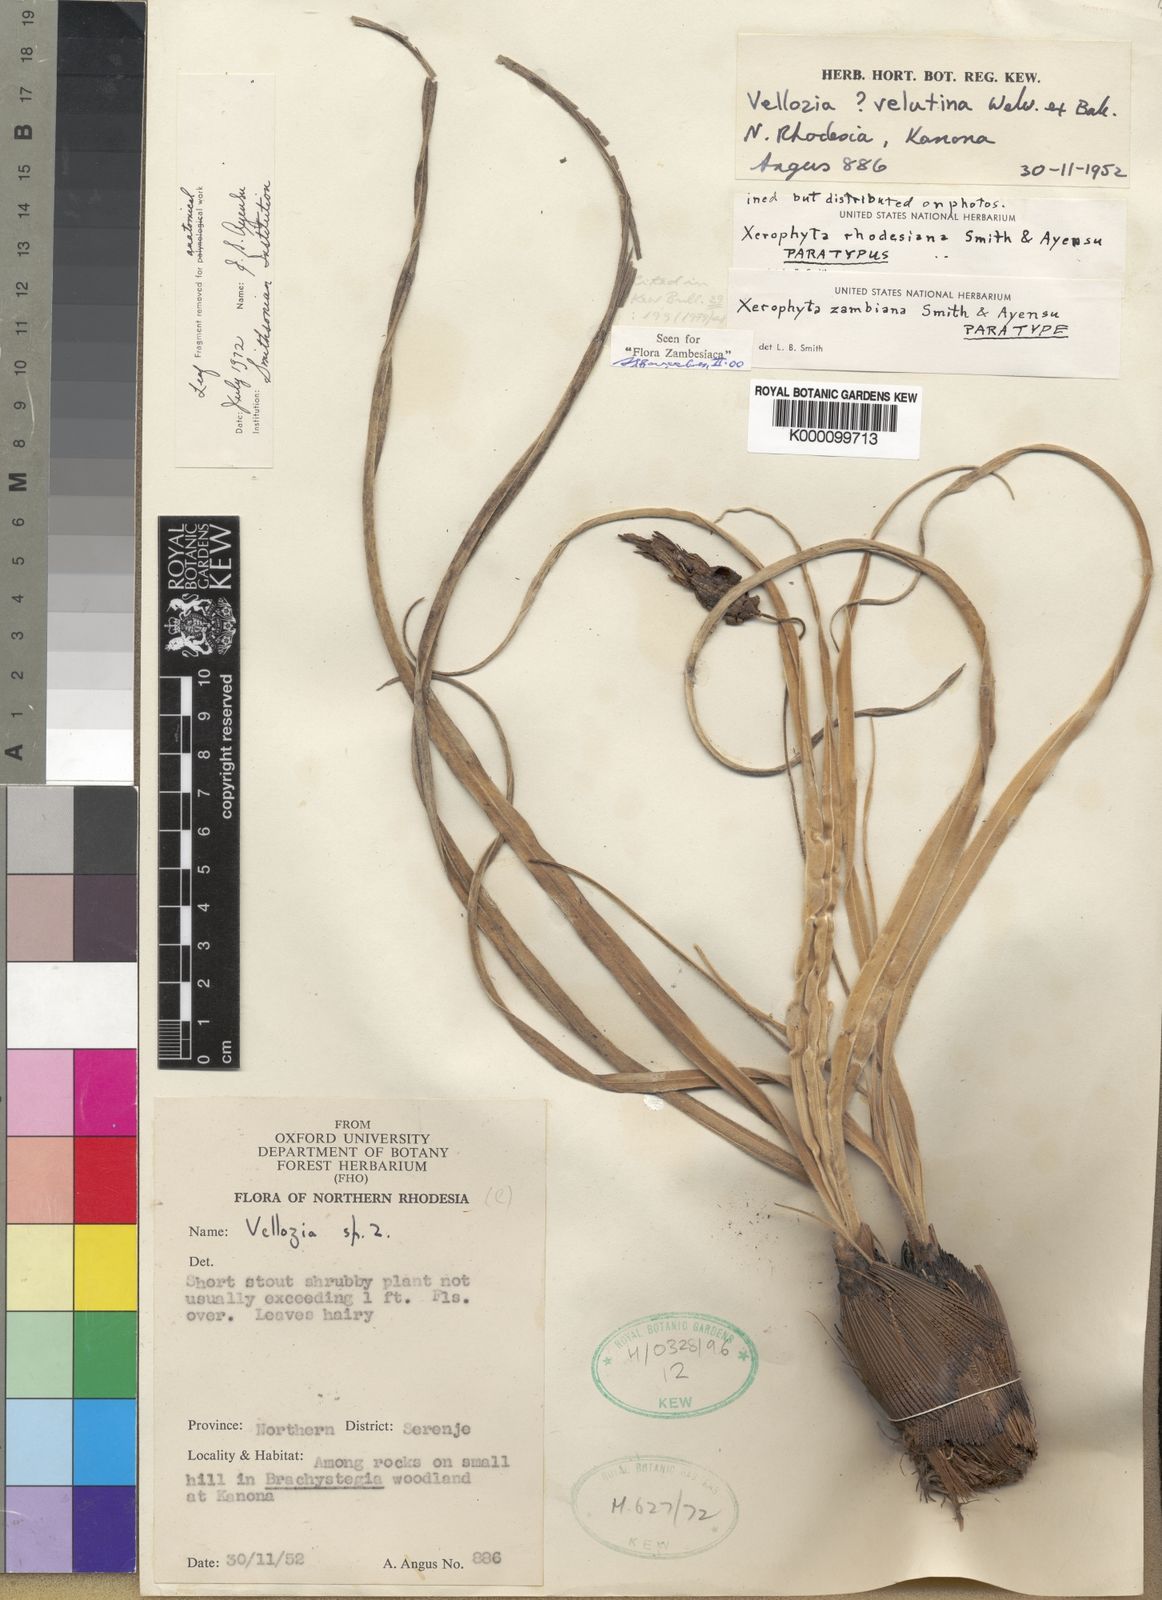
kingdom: Plantae
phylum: Tracheophyta
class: Liliopsida
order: Pandanales
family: Velloziaceae
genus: Xerophyta
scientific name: Xerophyta eylesii
